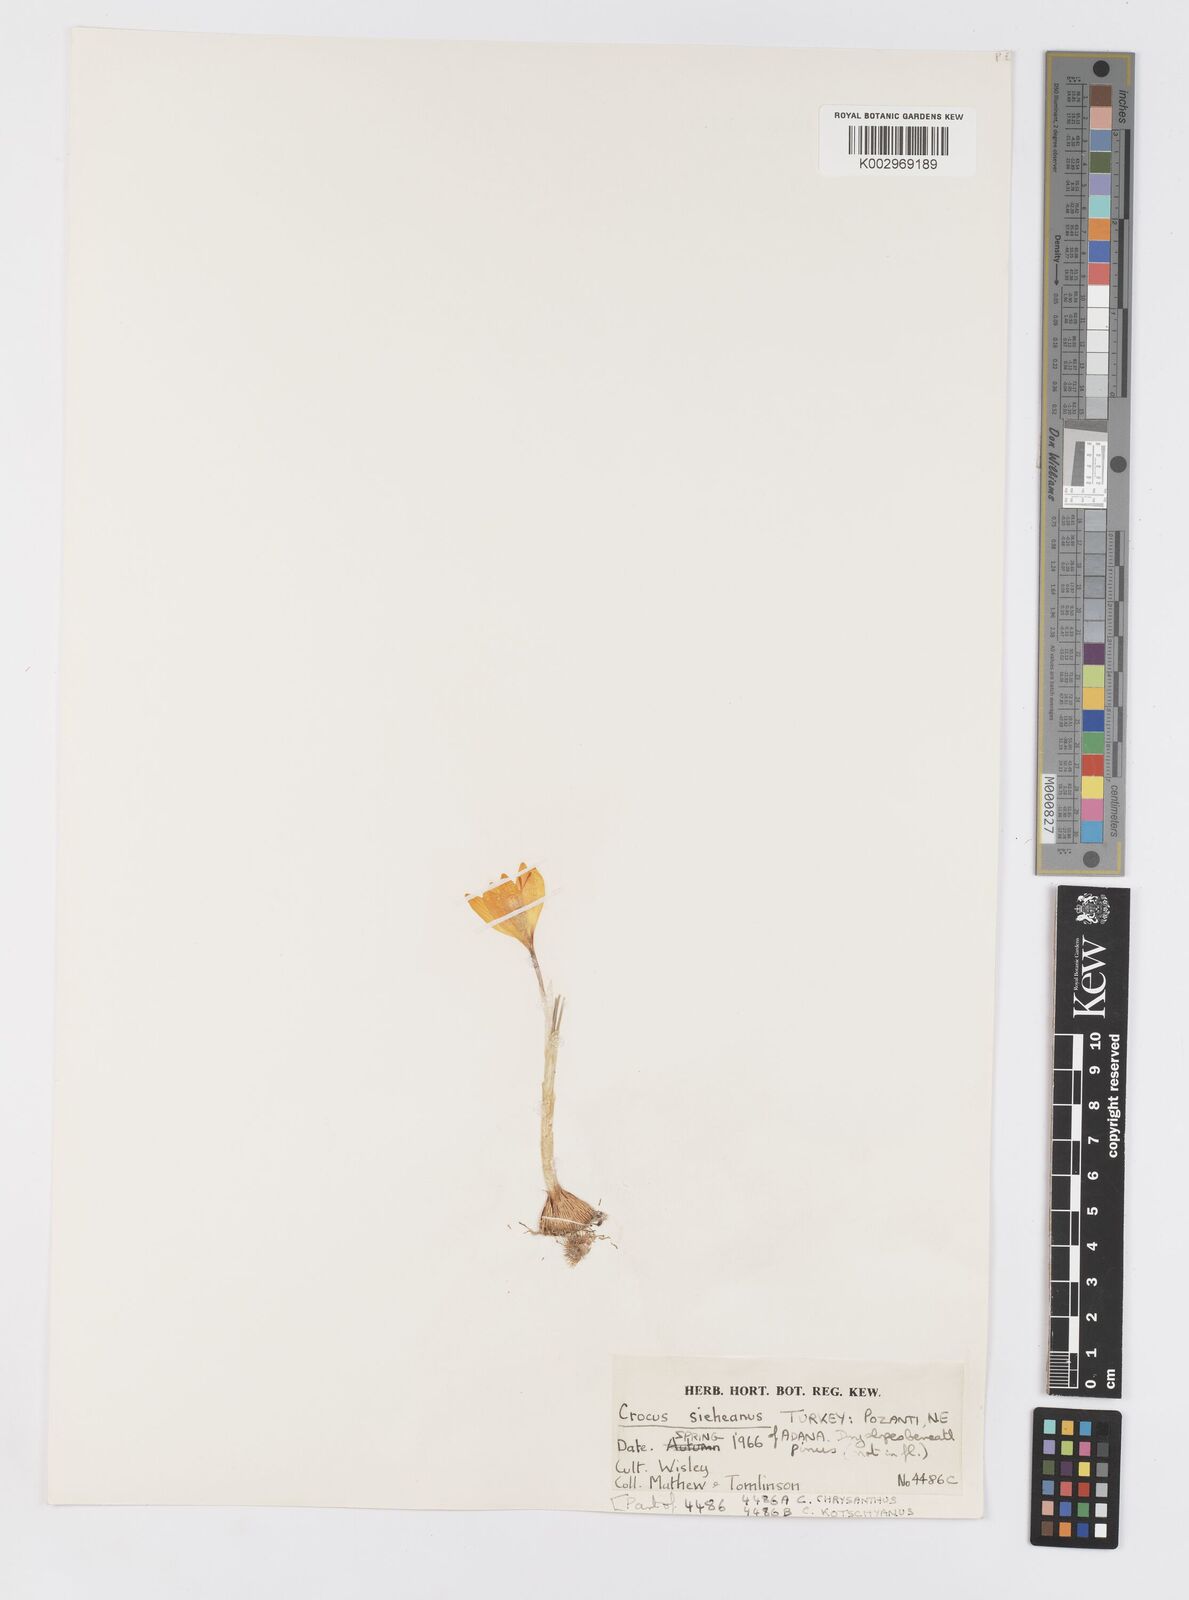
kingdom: Plantae
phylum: Tracheophyta
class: Liliopsida
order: Asparagales
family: Iridaceae
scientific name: Iridaceae
